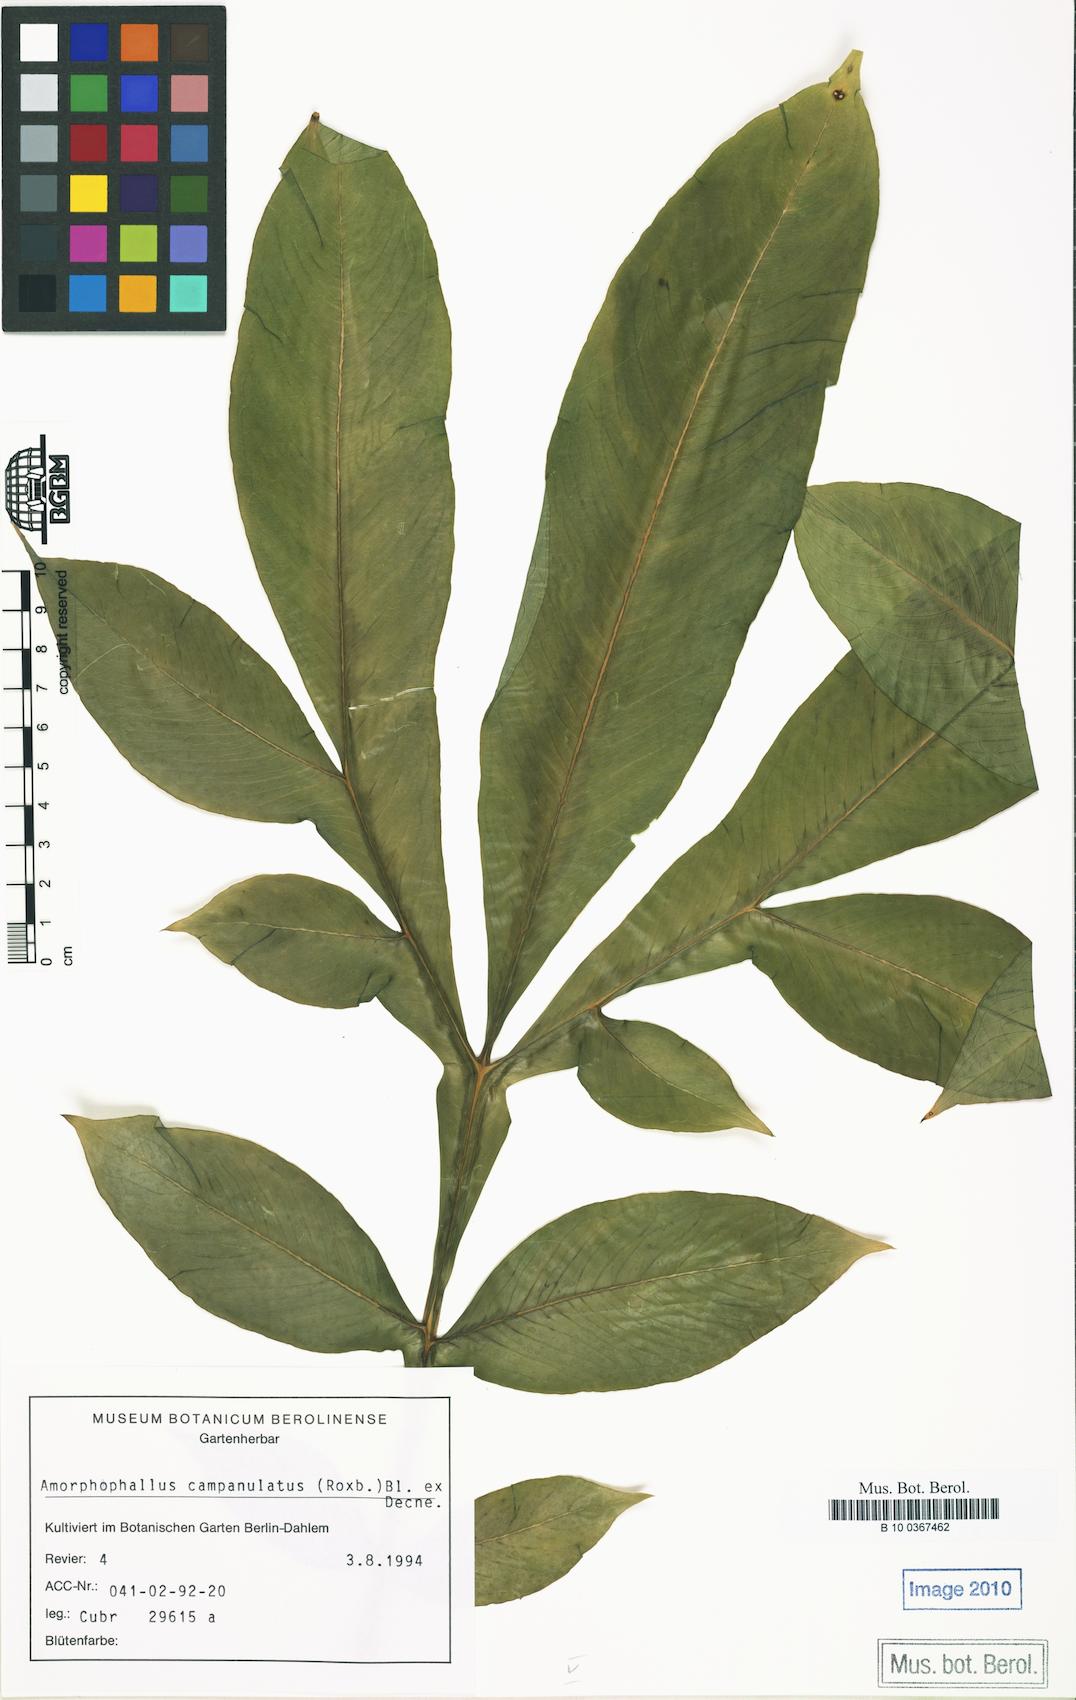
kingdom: Plantae
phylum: Tracheophyta
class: Liliopsida
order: Alismatales
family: Araceae
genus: Amorphophallus
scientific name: Amorphophallus paeoniifolius
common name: Telinga-potato
